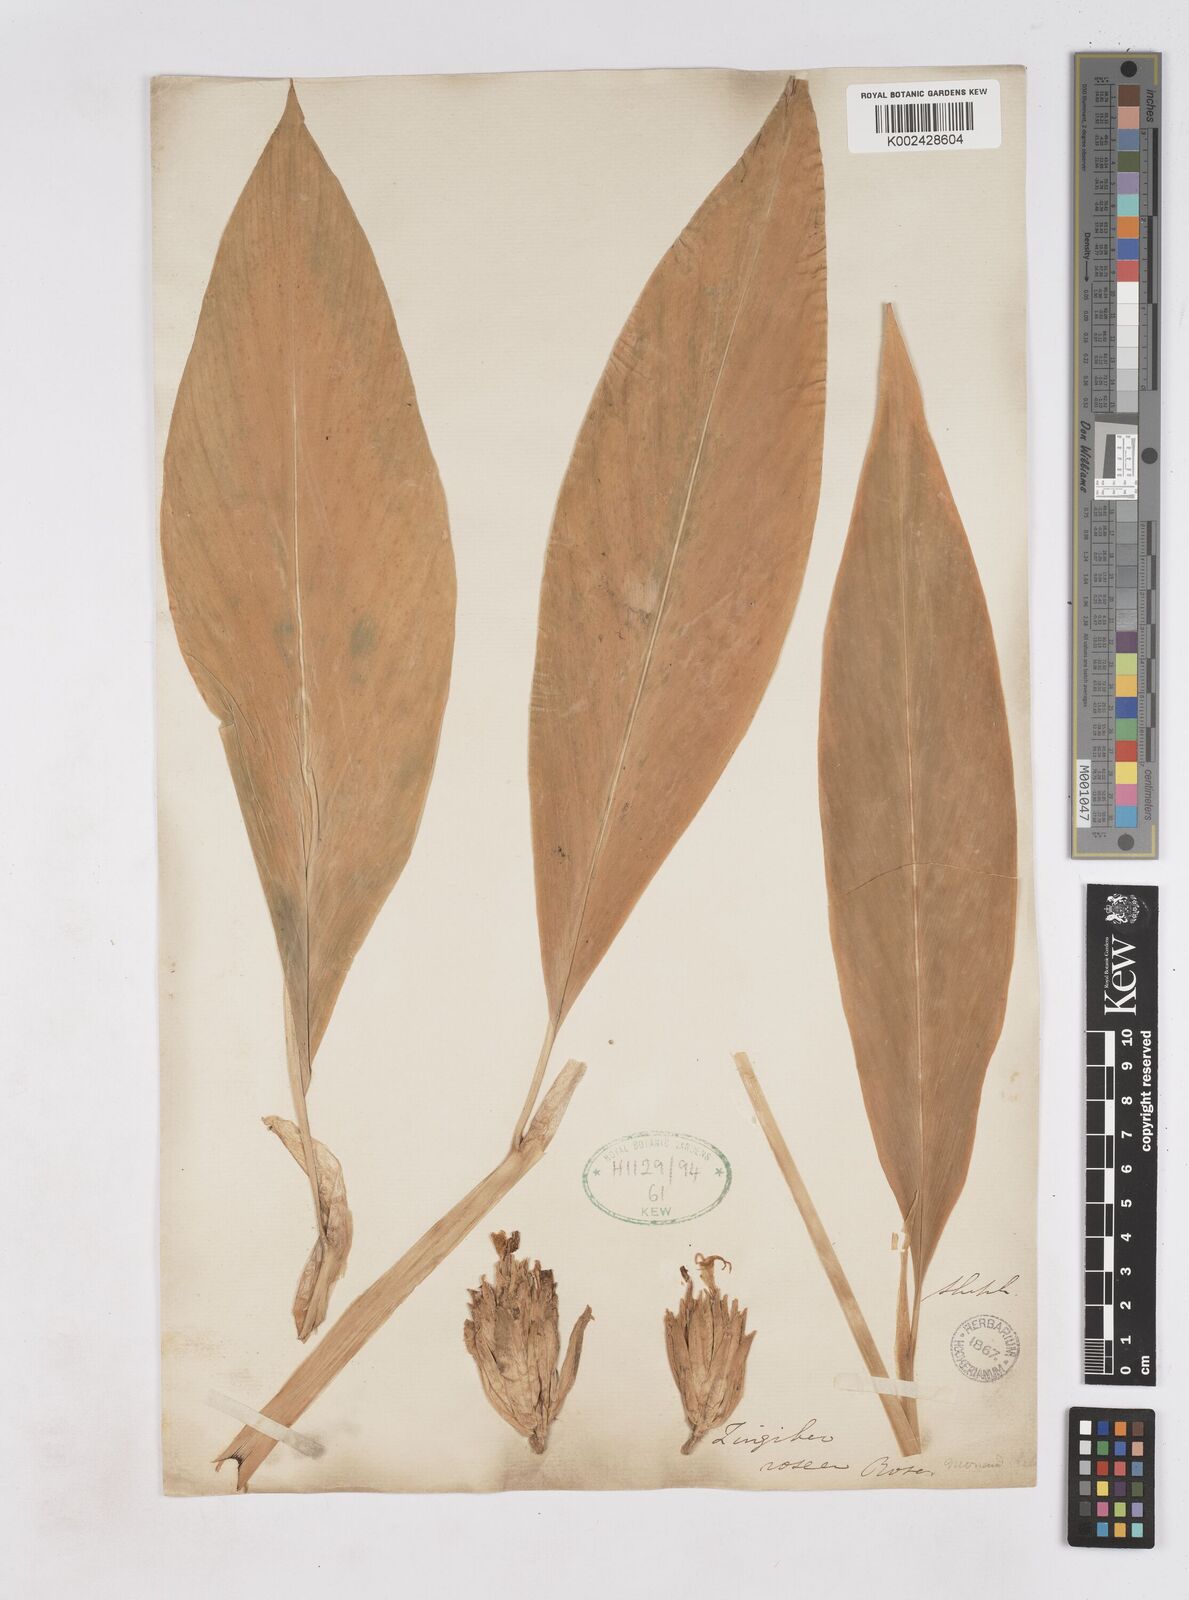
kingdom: Plantae
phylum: Tracheophyta
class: Liliopsida
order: Zingiberales
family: Zingiberaceae
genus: Zingiber
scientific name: Zingiber roseum
